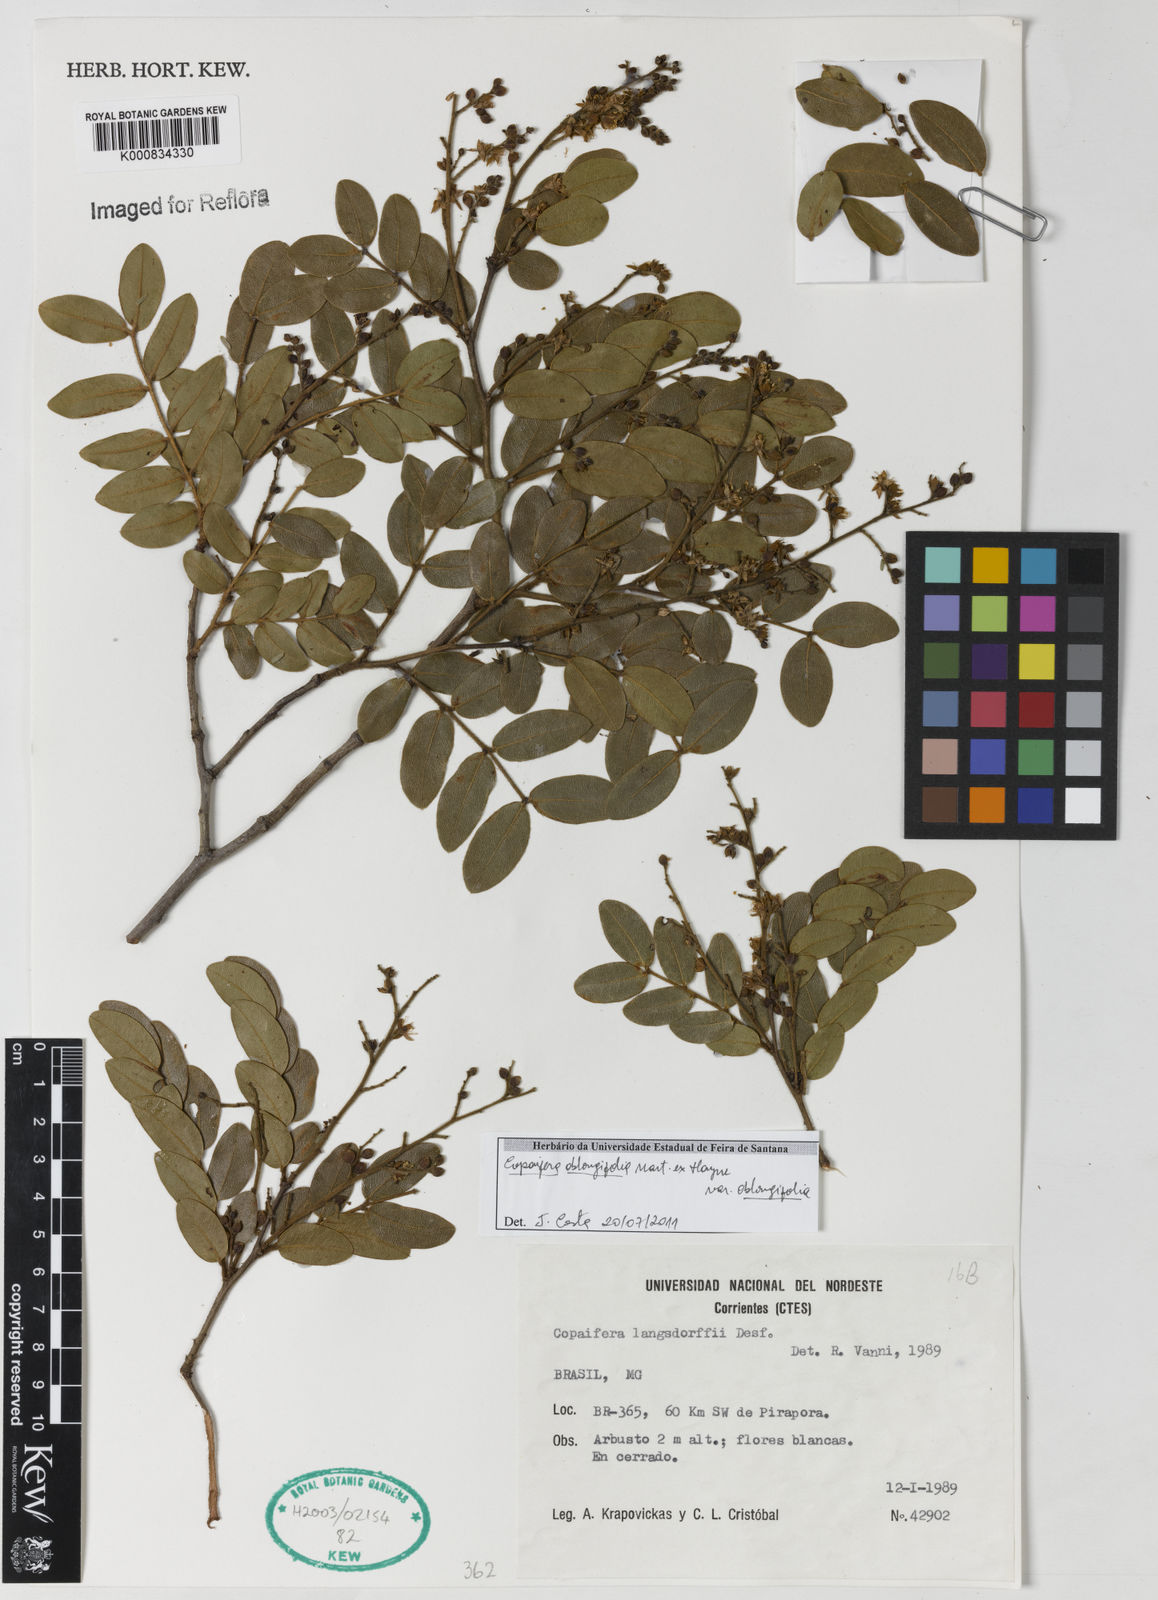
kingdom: Plantae
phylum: Tracheophyta
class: Magnoliopsida
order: Fabales
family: Fabaceae
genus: Copaifera
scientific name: Copaifera oblongifolia
